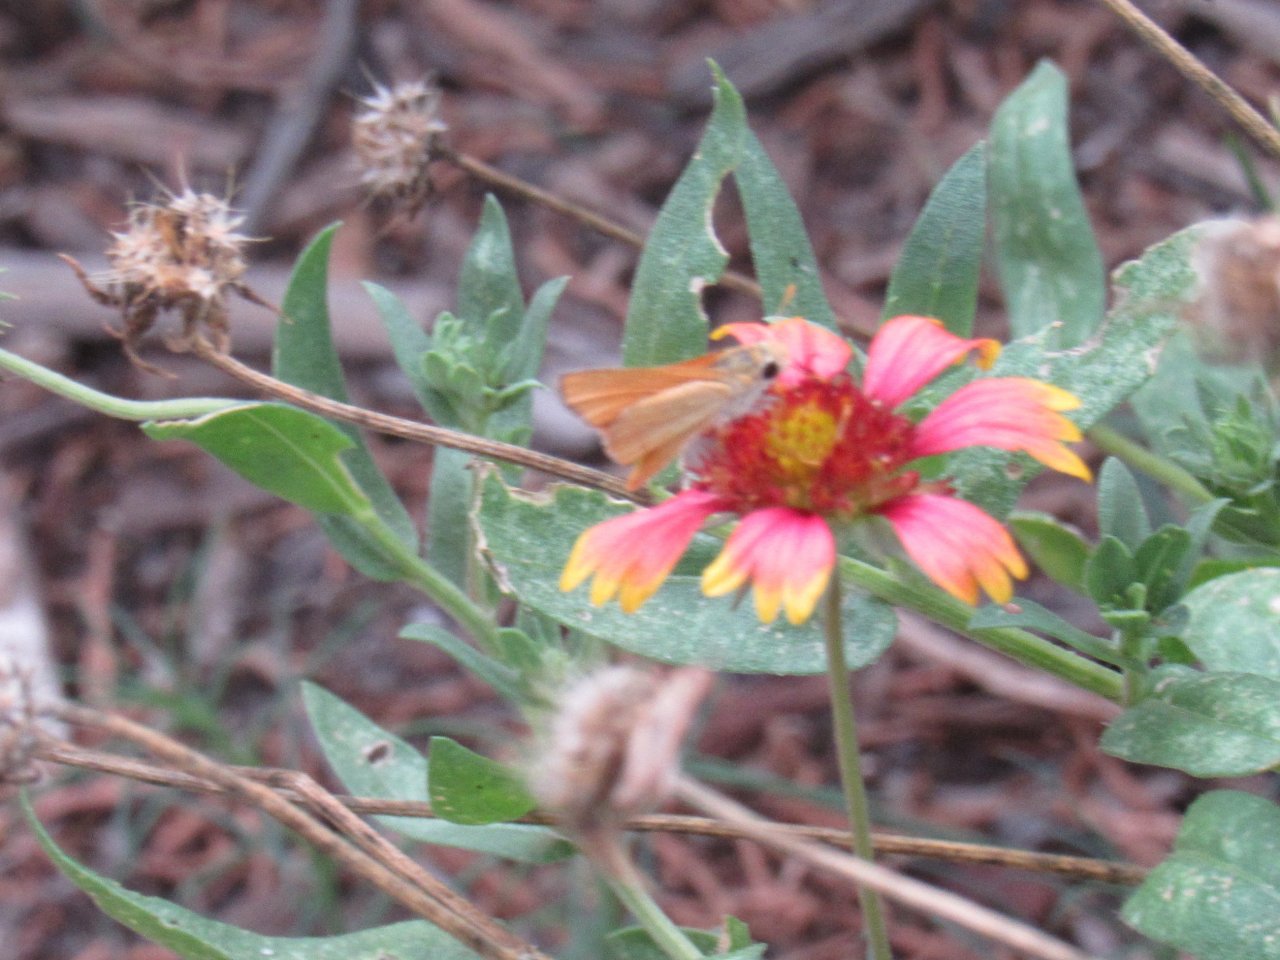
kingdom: Animalia
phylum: Arthropoda
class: Insecta
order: Lepidoptera
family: Hesperiidae
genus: Copaeodes
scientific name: Copaeodes aurantiaca
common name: Orange Skipperling
